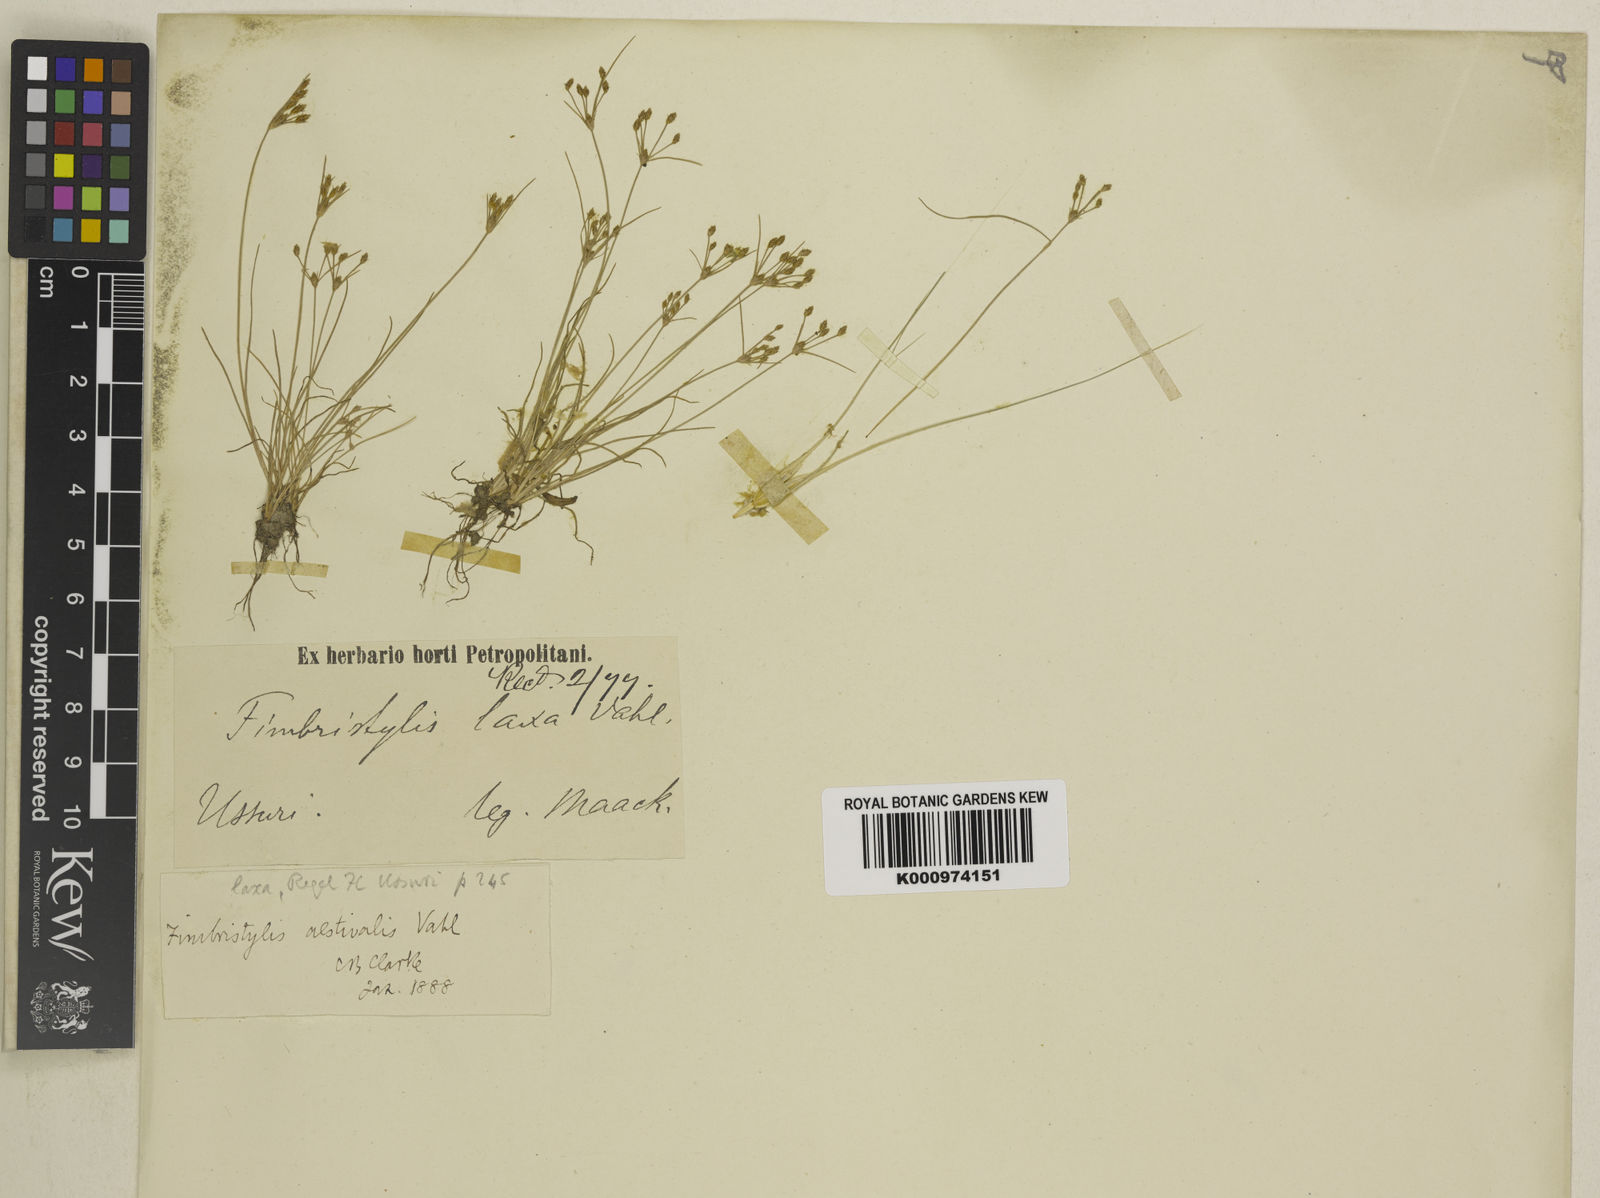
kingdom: Plantae
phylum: Tracheophyta
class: Liliopsida
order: Poales
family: Cyperaceae
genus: Fimbristylis
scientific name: Fimbristylis aestivalis
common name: Summer fimbry
